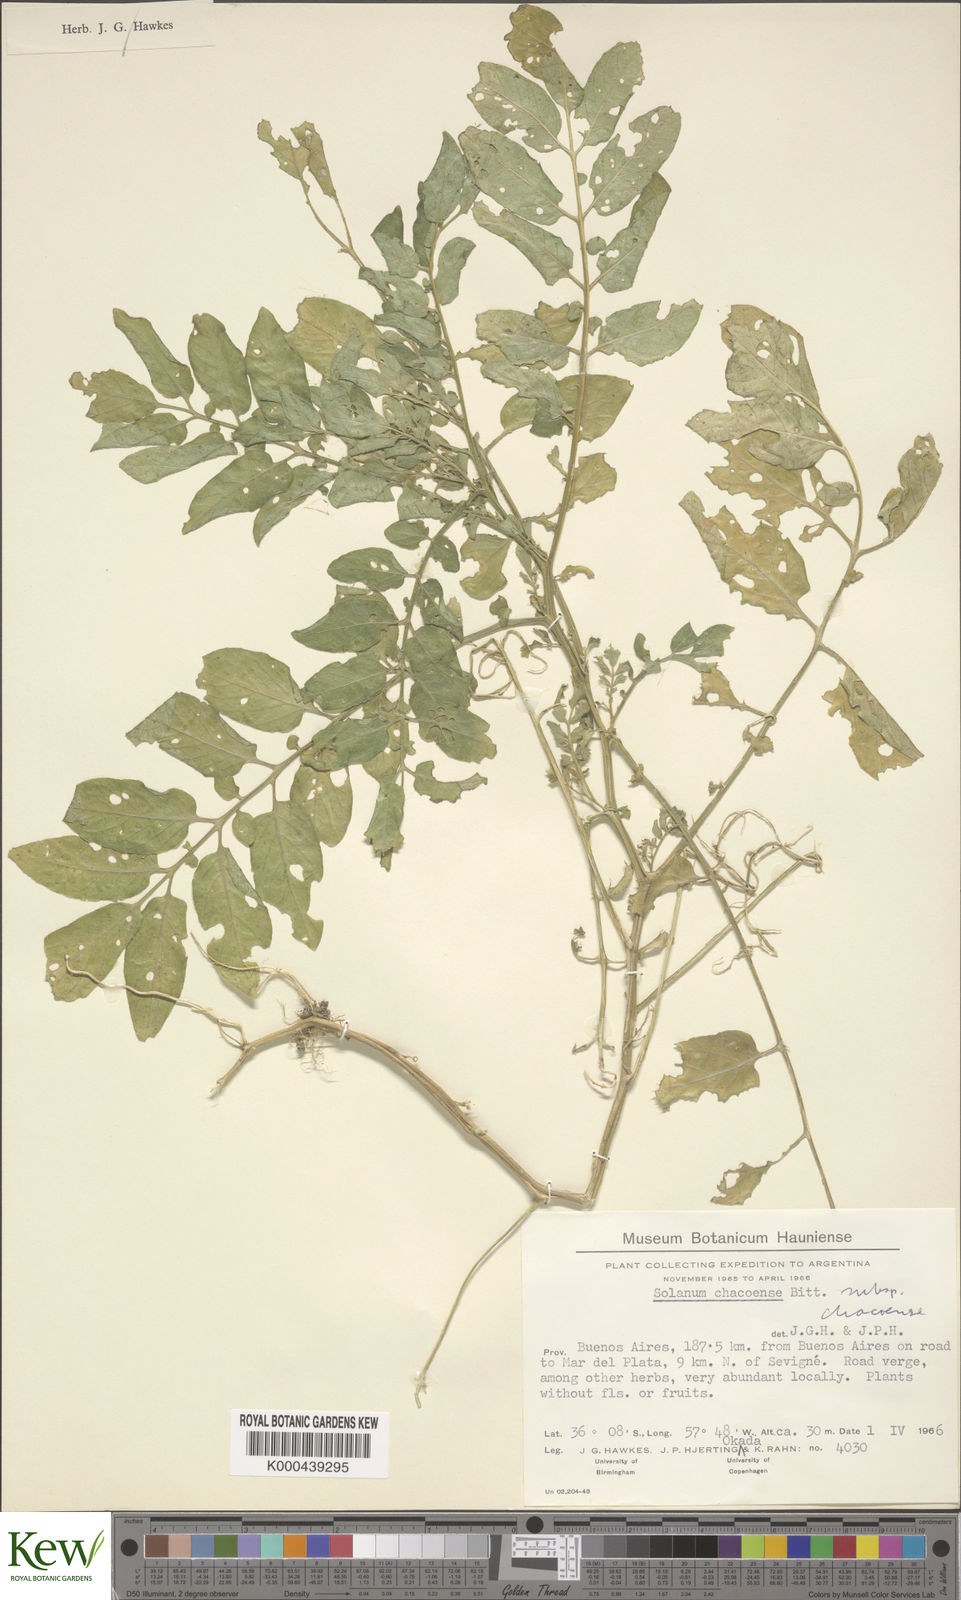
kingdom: Plantae
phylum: Tracheophyta
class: Magnoliopsida
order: Solanales
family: Solanaceae
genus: Solanum
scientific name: Solanum chacoense
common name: Chaco potato
